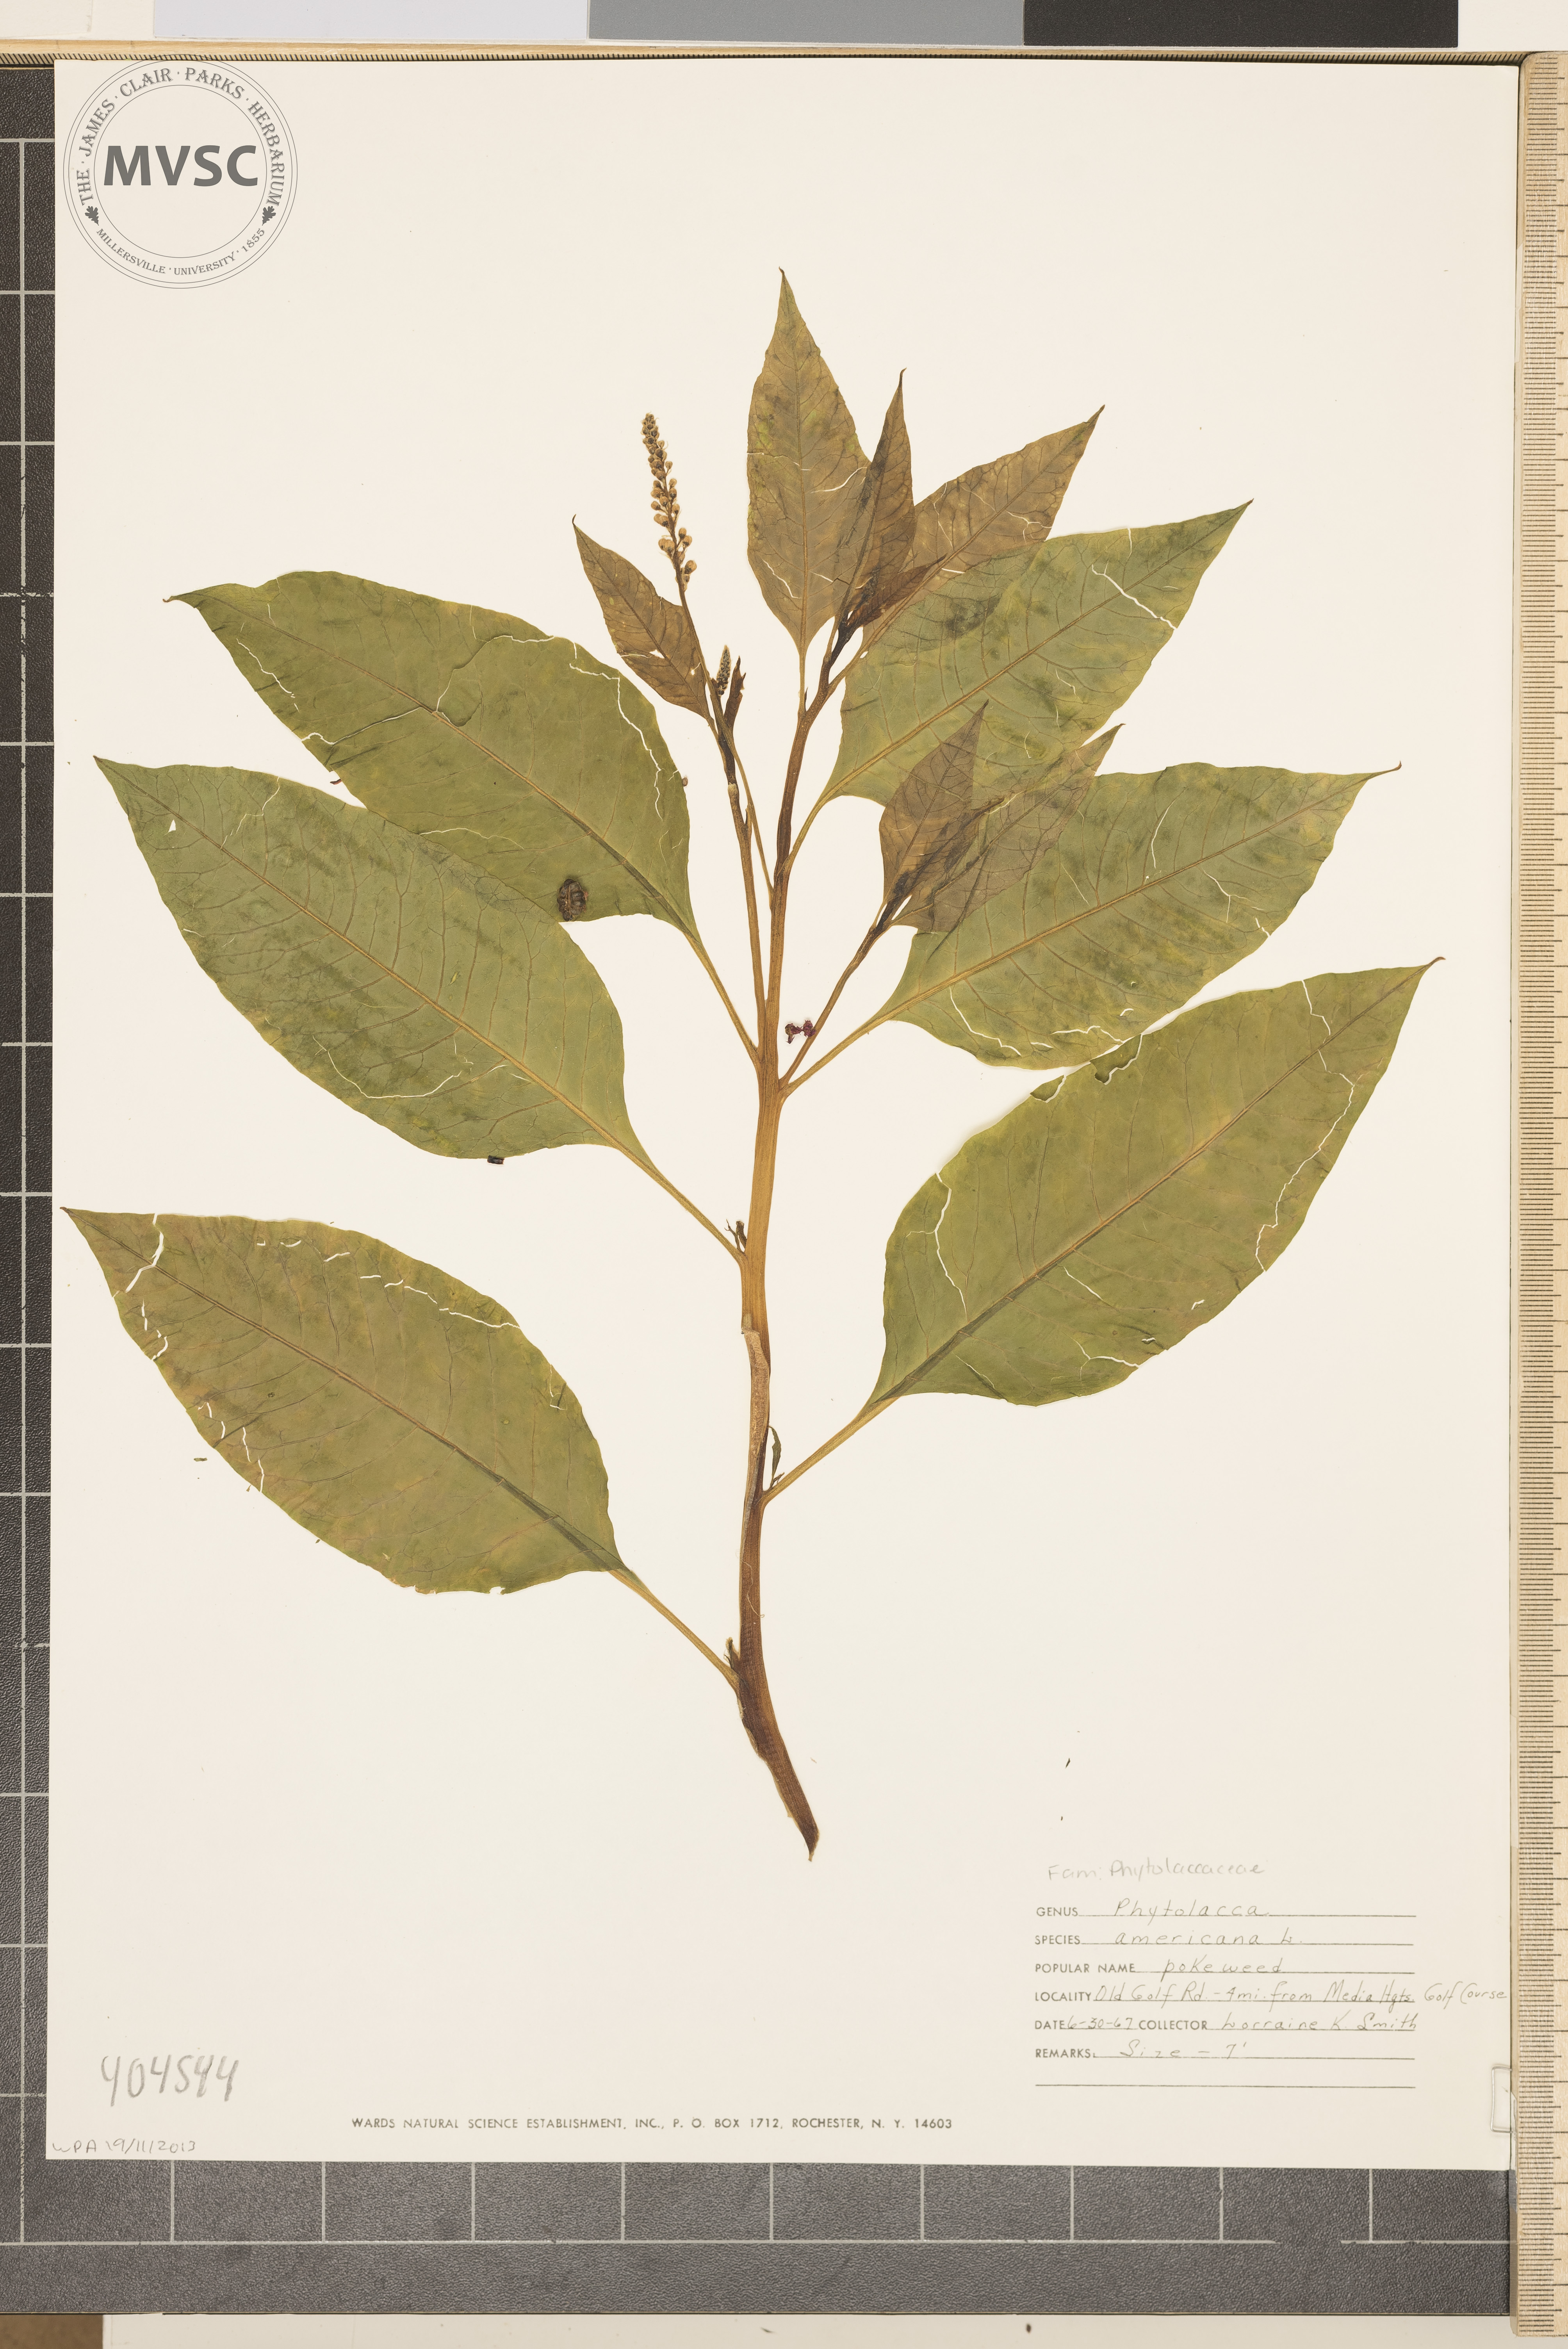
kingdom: Plantae
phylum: Tracheophyta
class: Magnoliopsida
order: Caryophyllales
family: Phytolaccaceae
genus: Phytolacca
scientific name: Phytolacca americana
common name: American pokeweed
